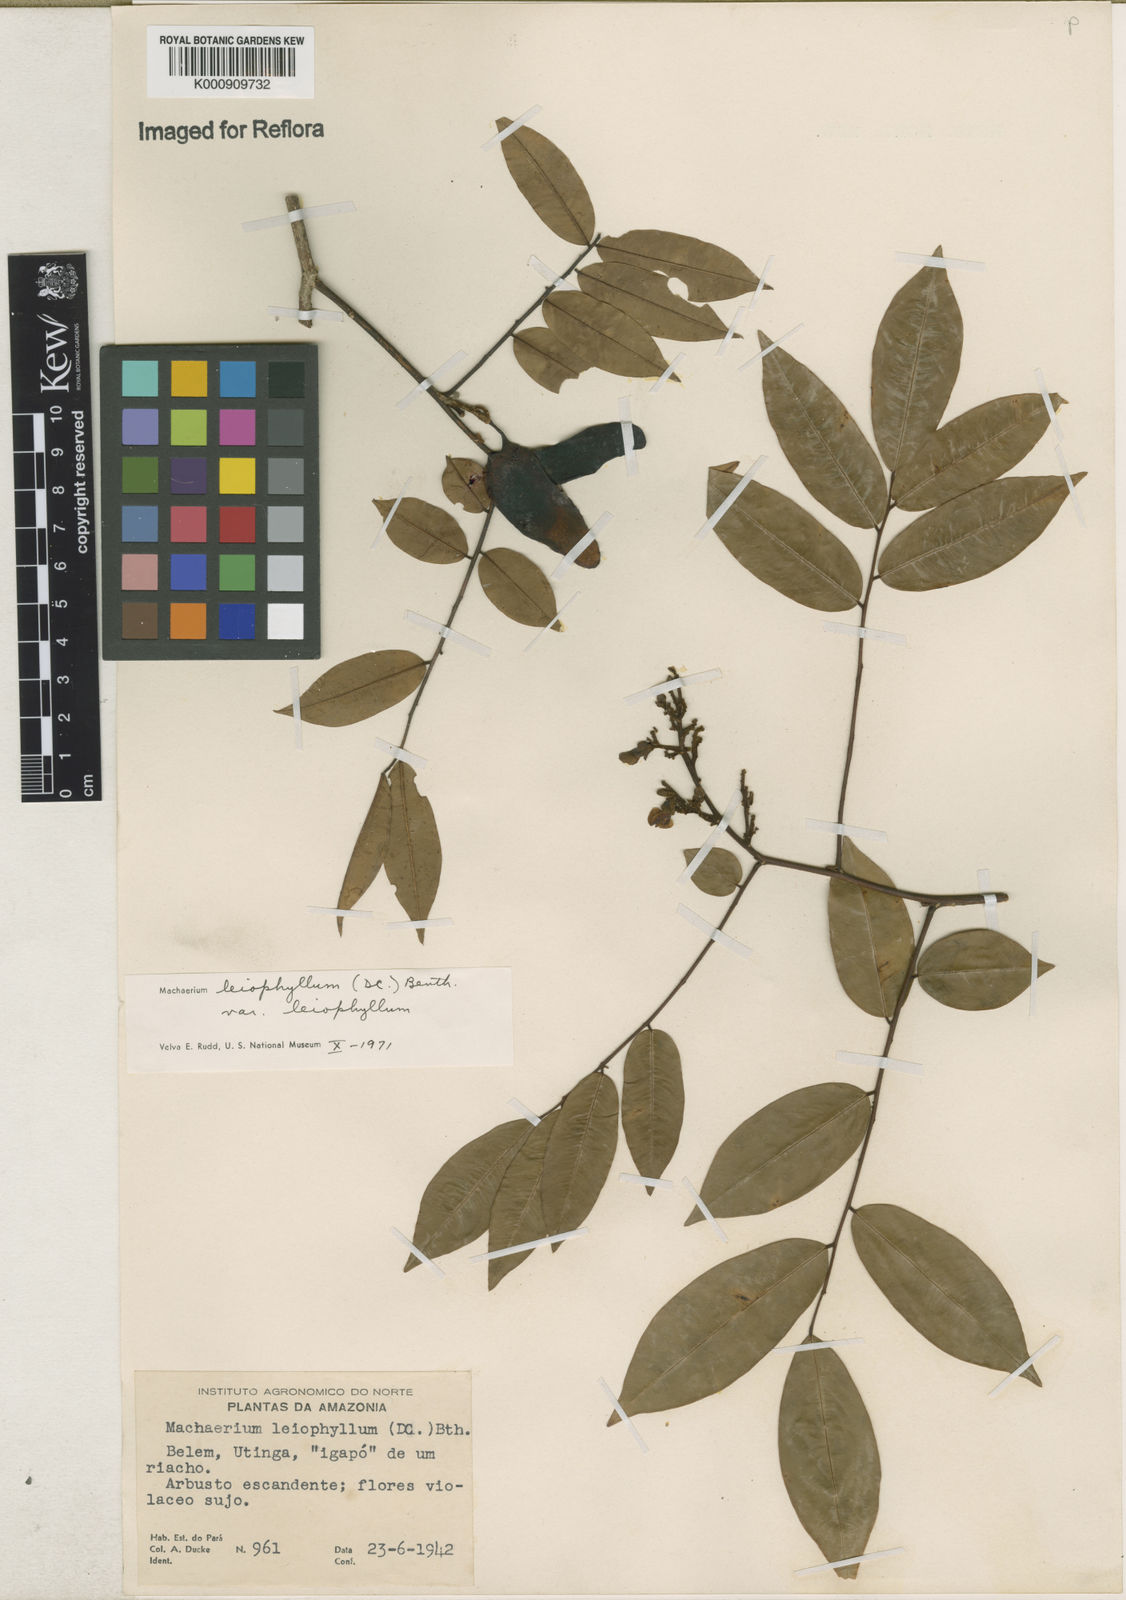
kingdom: Plantae
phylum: Tracheophyta
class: Magnoliopsida
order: Fabales
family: Fabaceae
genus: Machaerium
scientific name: Machaerium leiophyllum
